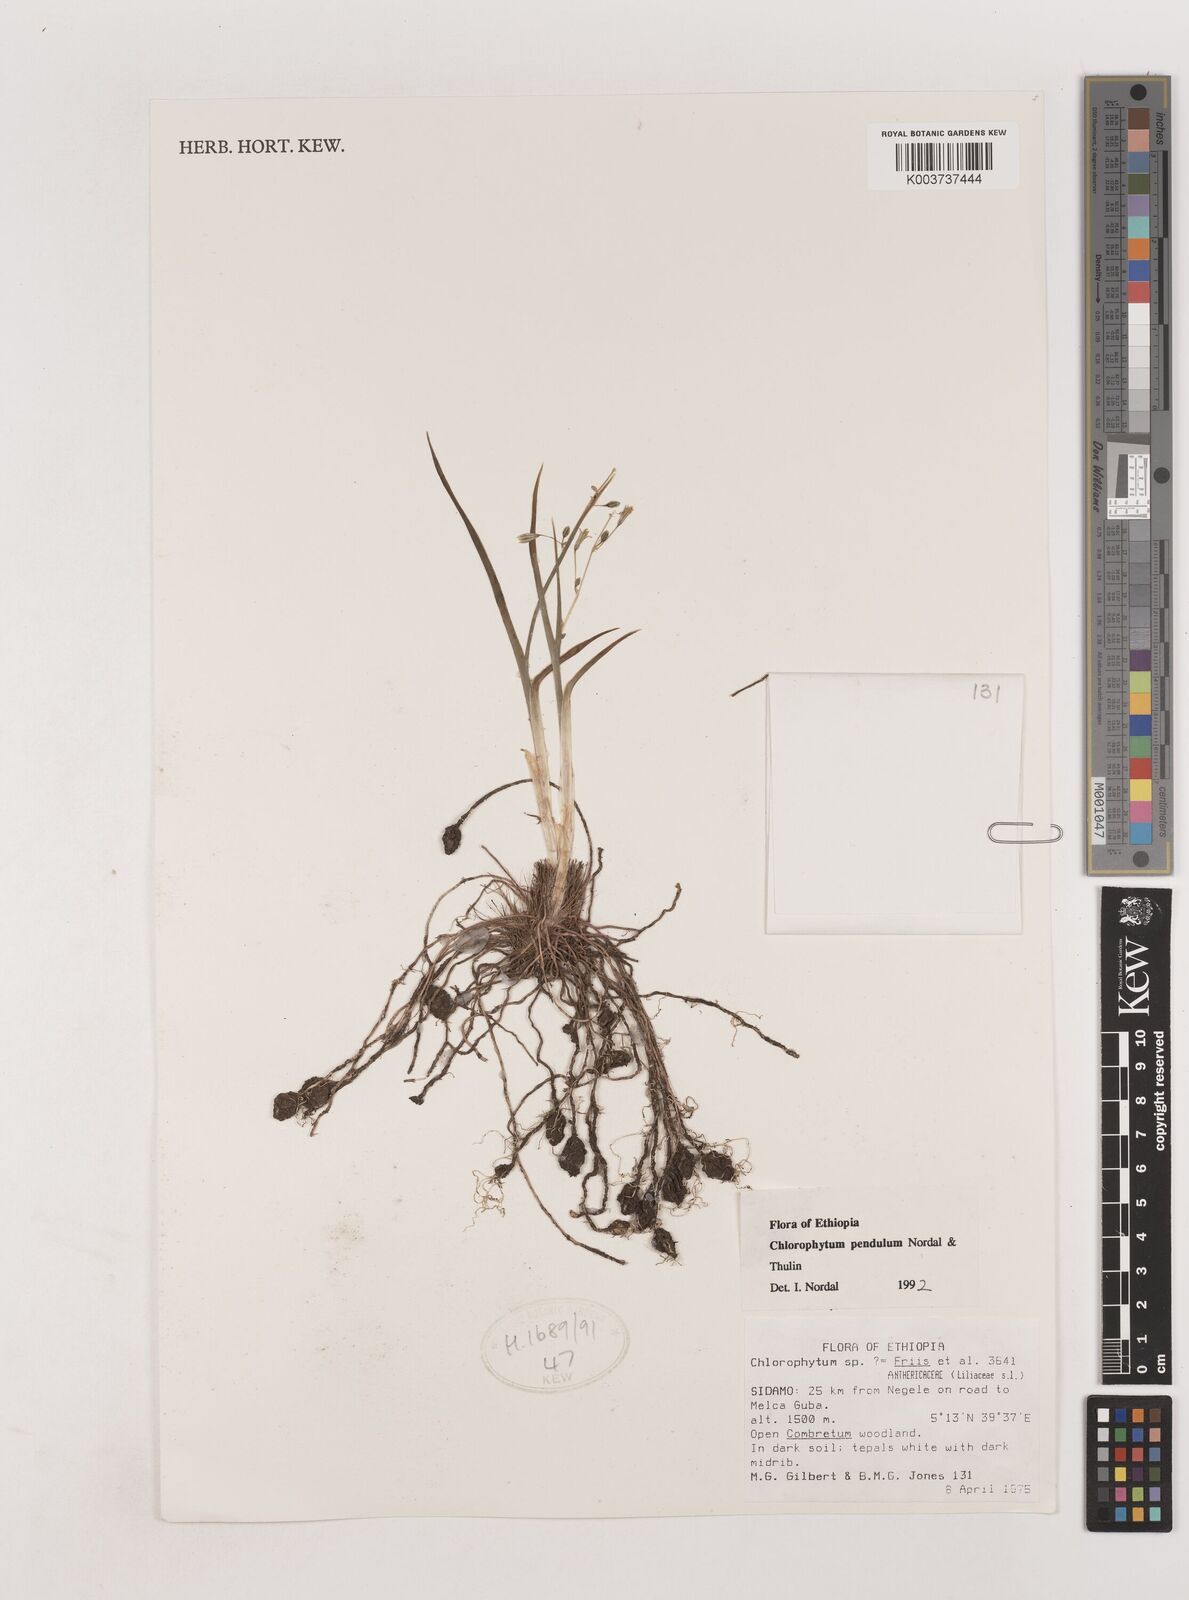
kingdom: Plantae
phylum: Tracheophyta
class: Liliopsida
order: Asparagales
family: Asparagaceae
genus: Chlorophytum
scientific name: Chlorophytum pendulum
